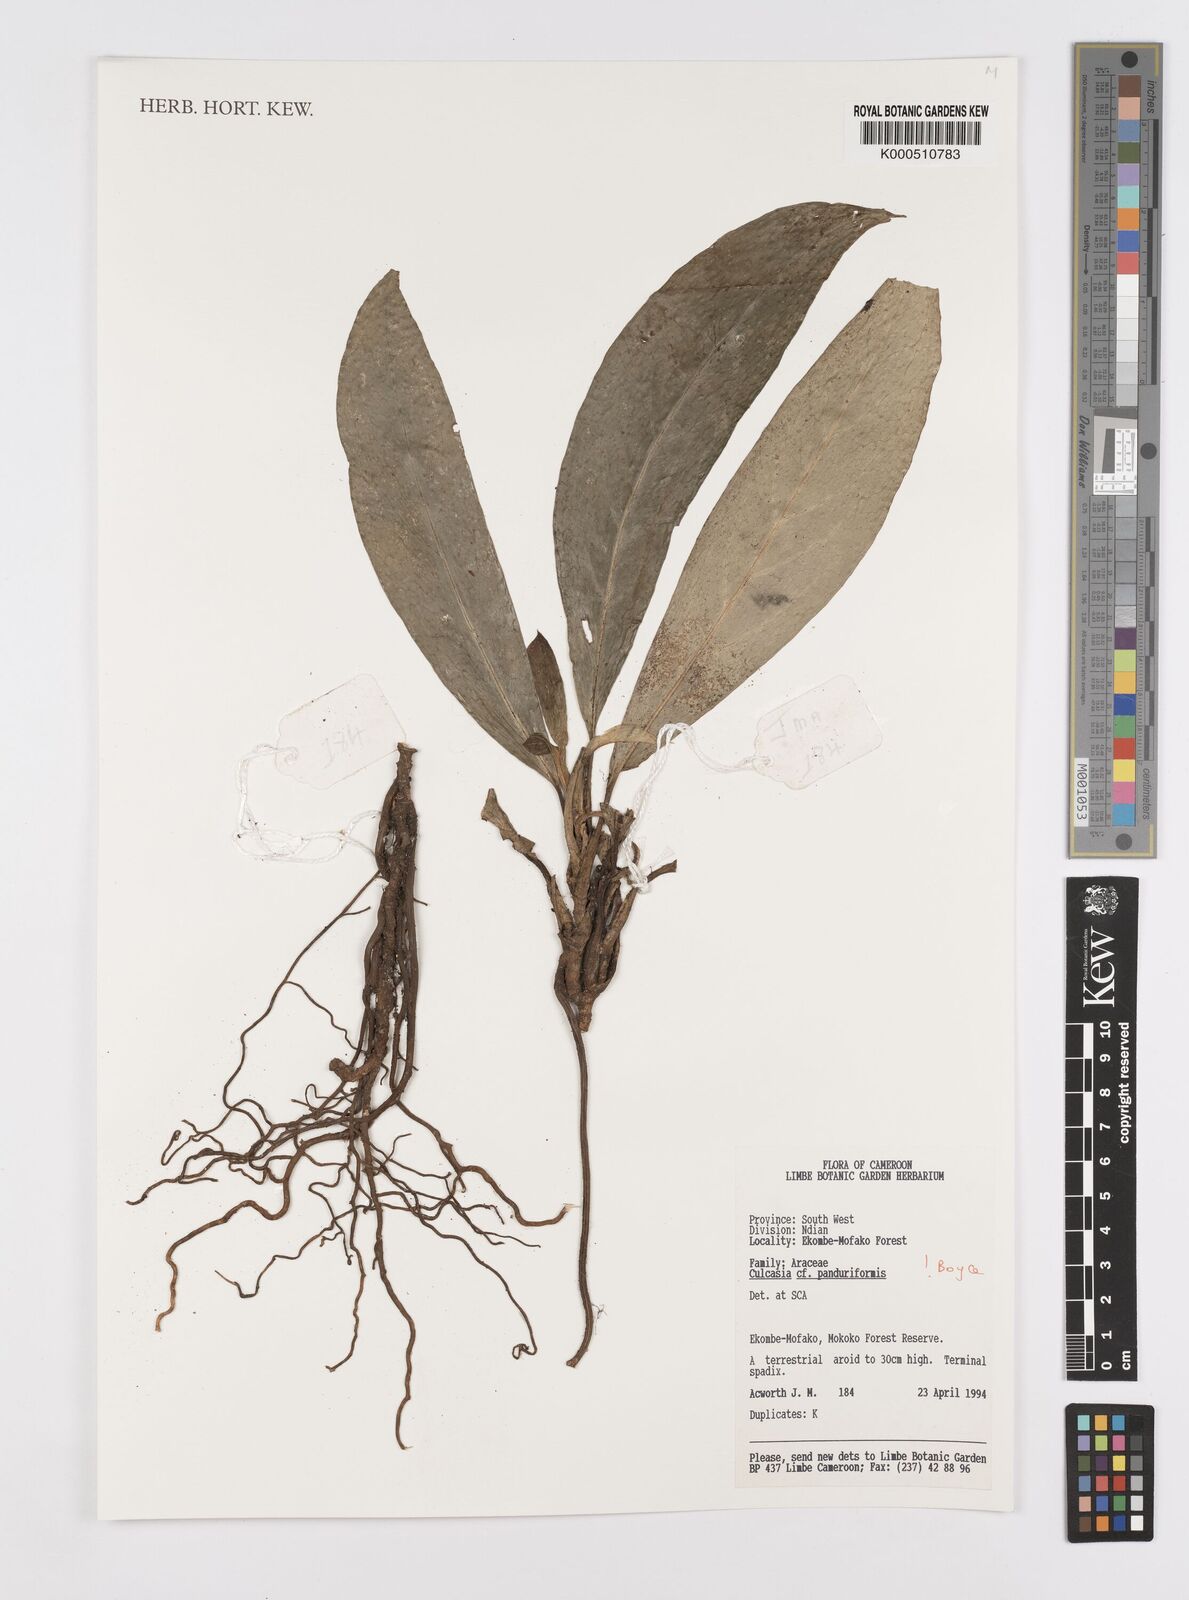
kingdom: Plantae
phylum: Tracheophyta
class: Liliopsida
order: Alismatales
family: Araceae
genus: Culcasia
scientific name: Culcasia panduriformis
